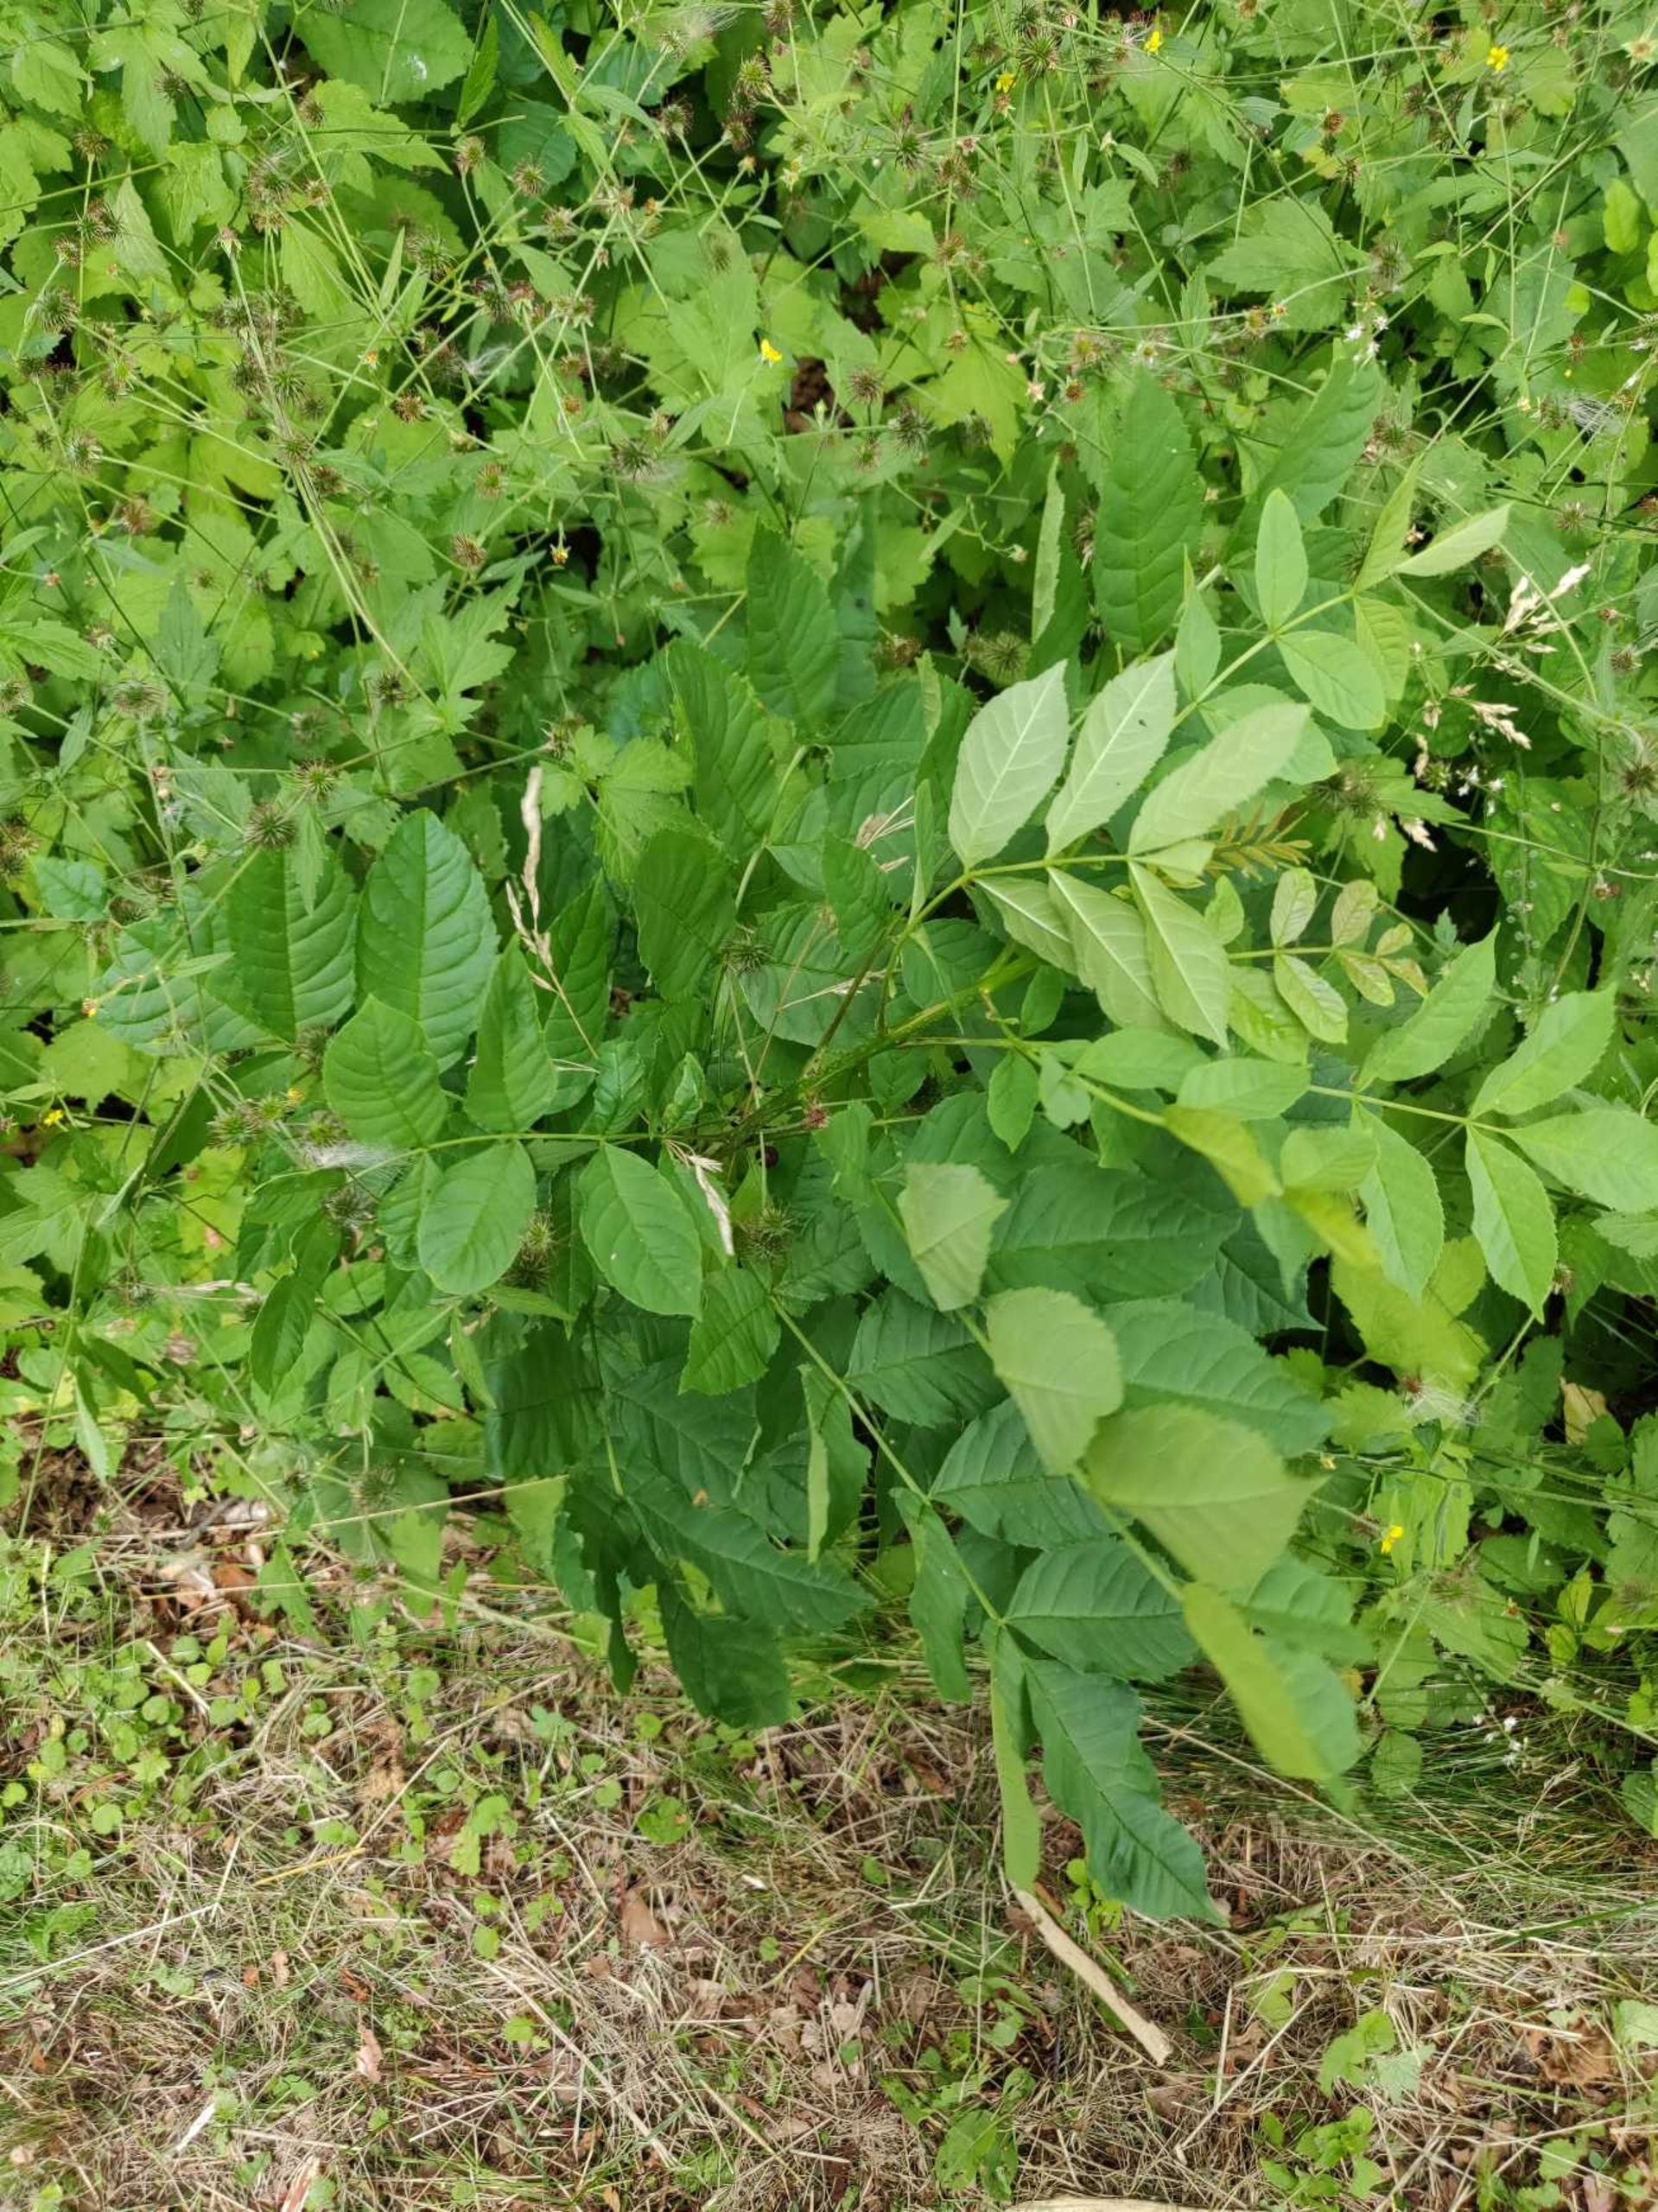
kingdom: Plantae
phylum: Tracheophyta
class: Magnoliopsida
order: Lamiales
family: Oleaceae
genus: Fraxinus
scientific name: Fraxinus excelsior
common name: Ask
